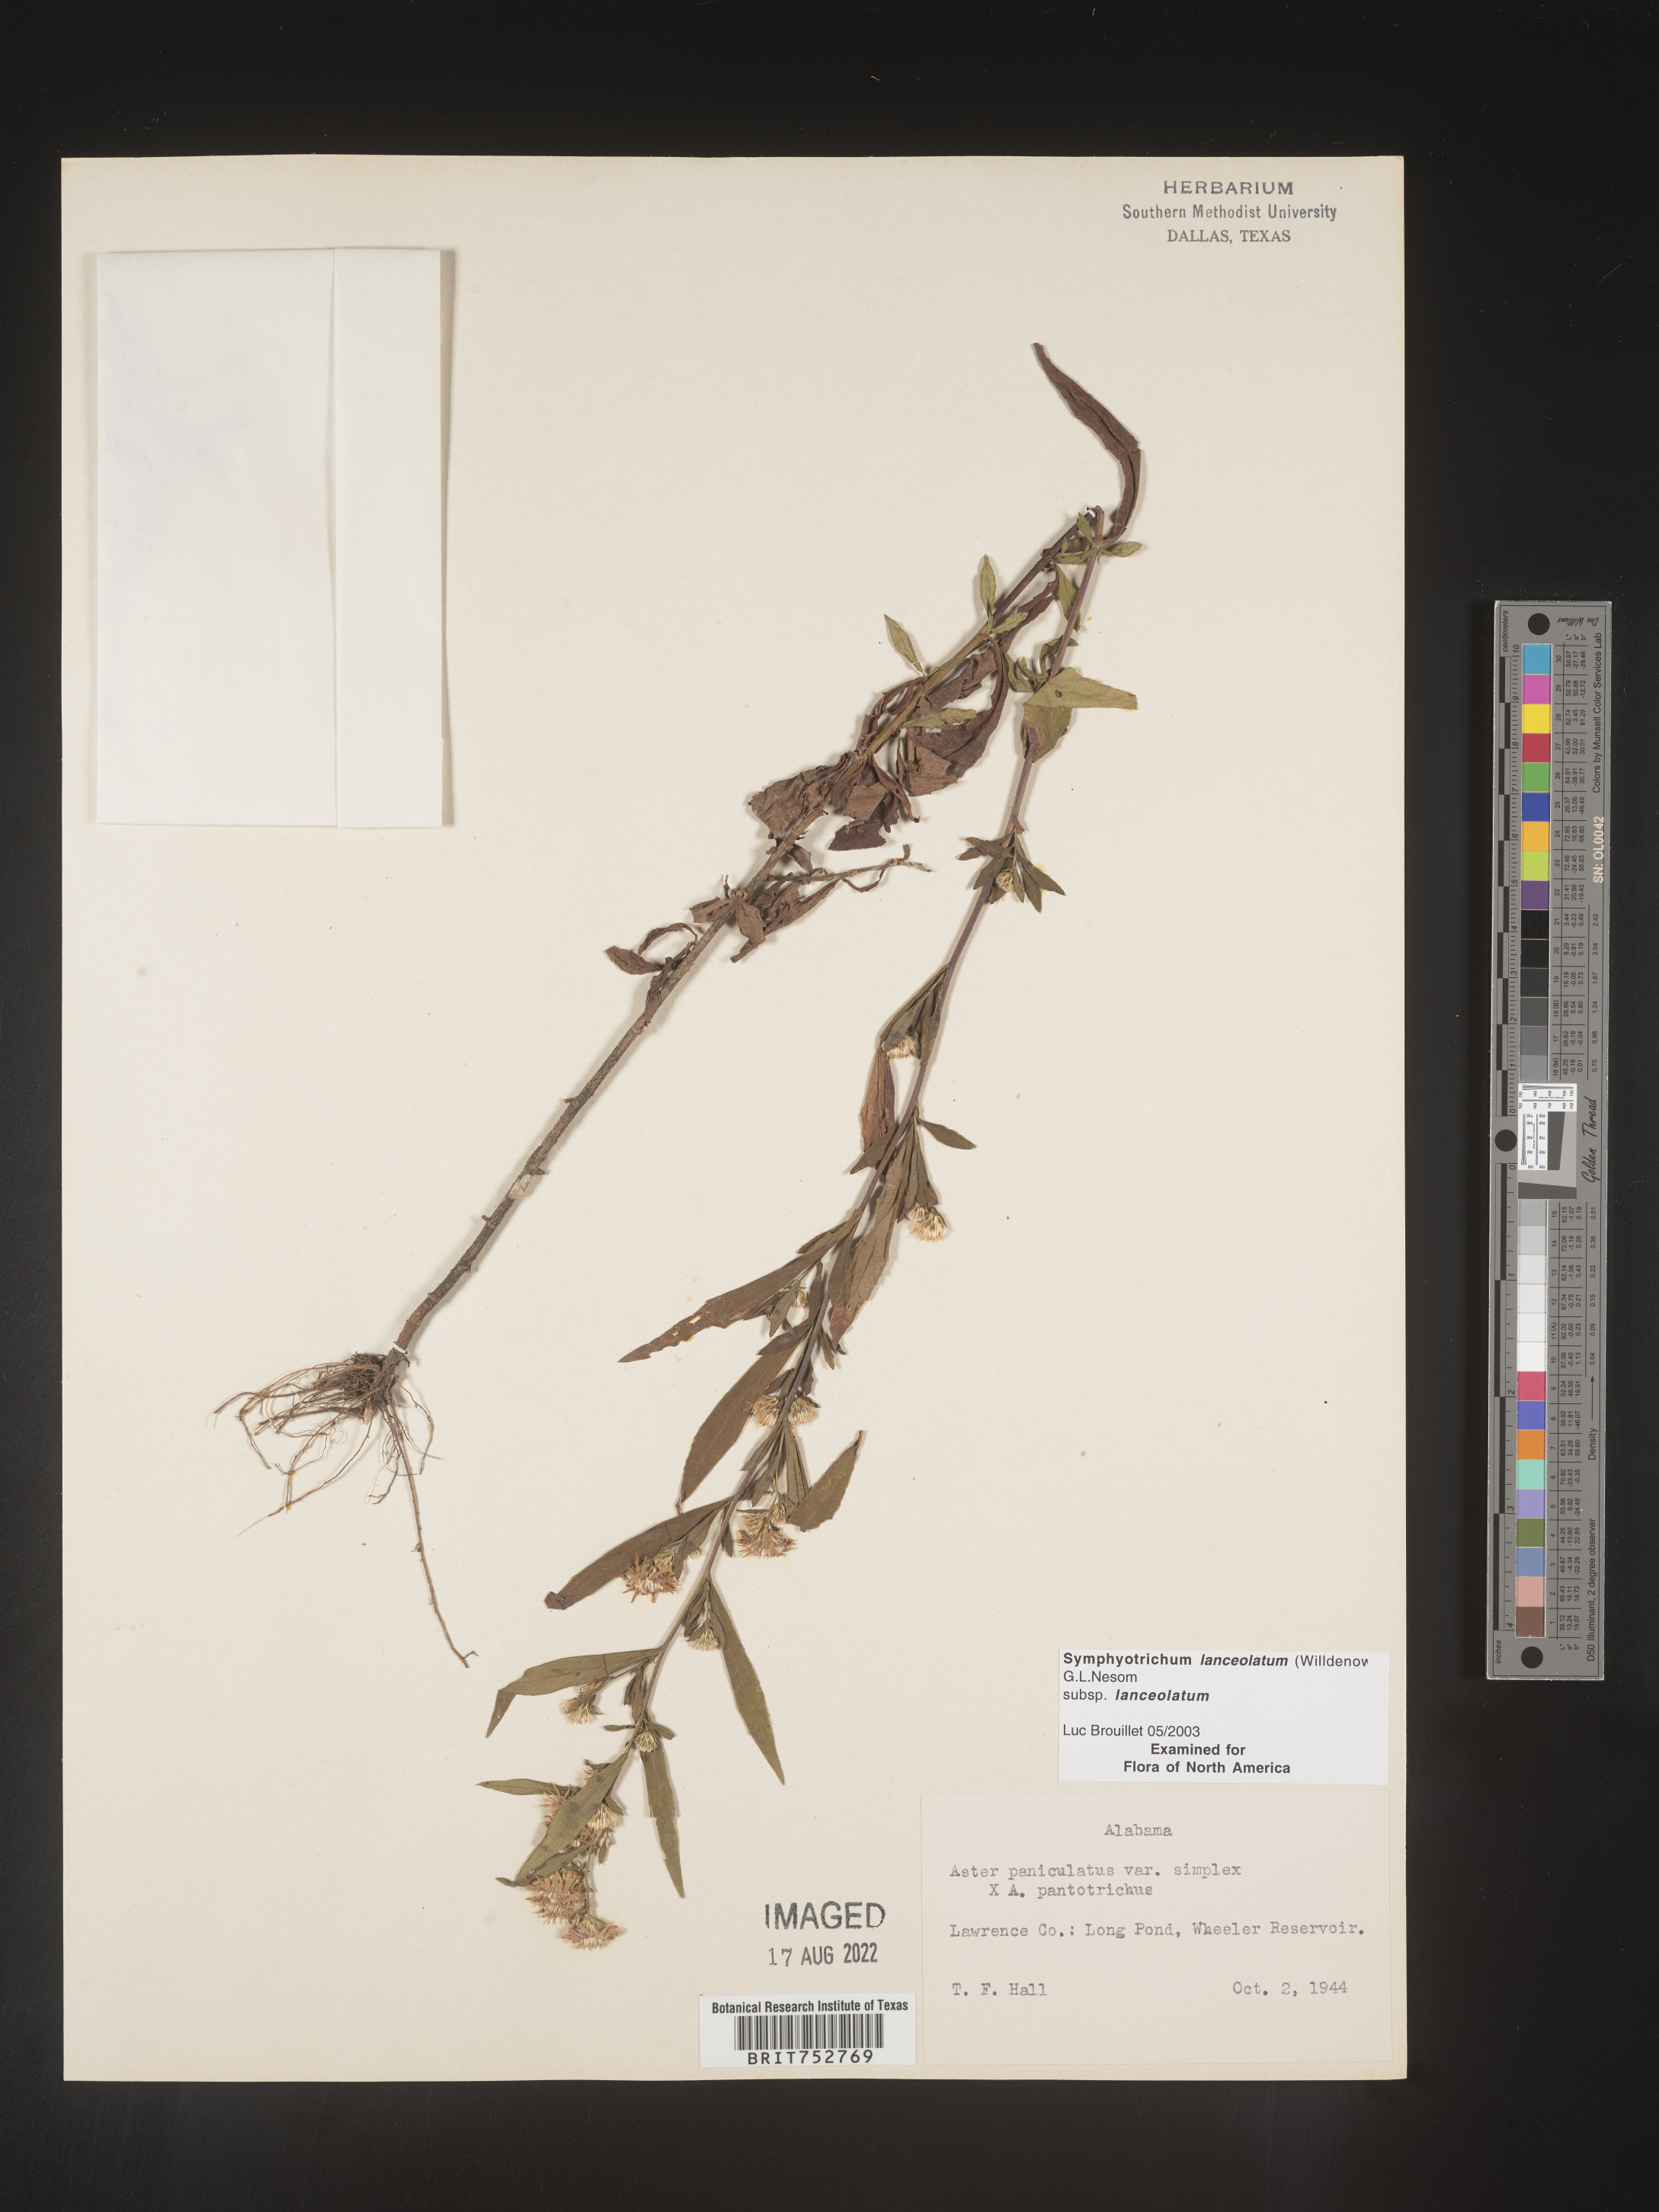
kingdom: Plantae
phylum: Tracheophyta
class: Magnoliopsida
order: Asterales
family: Asteraceae
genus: Symphyotrichum
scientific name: Symphyotrichum lanceolatum
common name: Panicled aster
